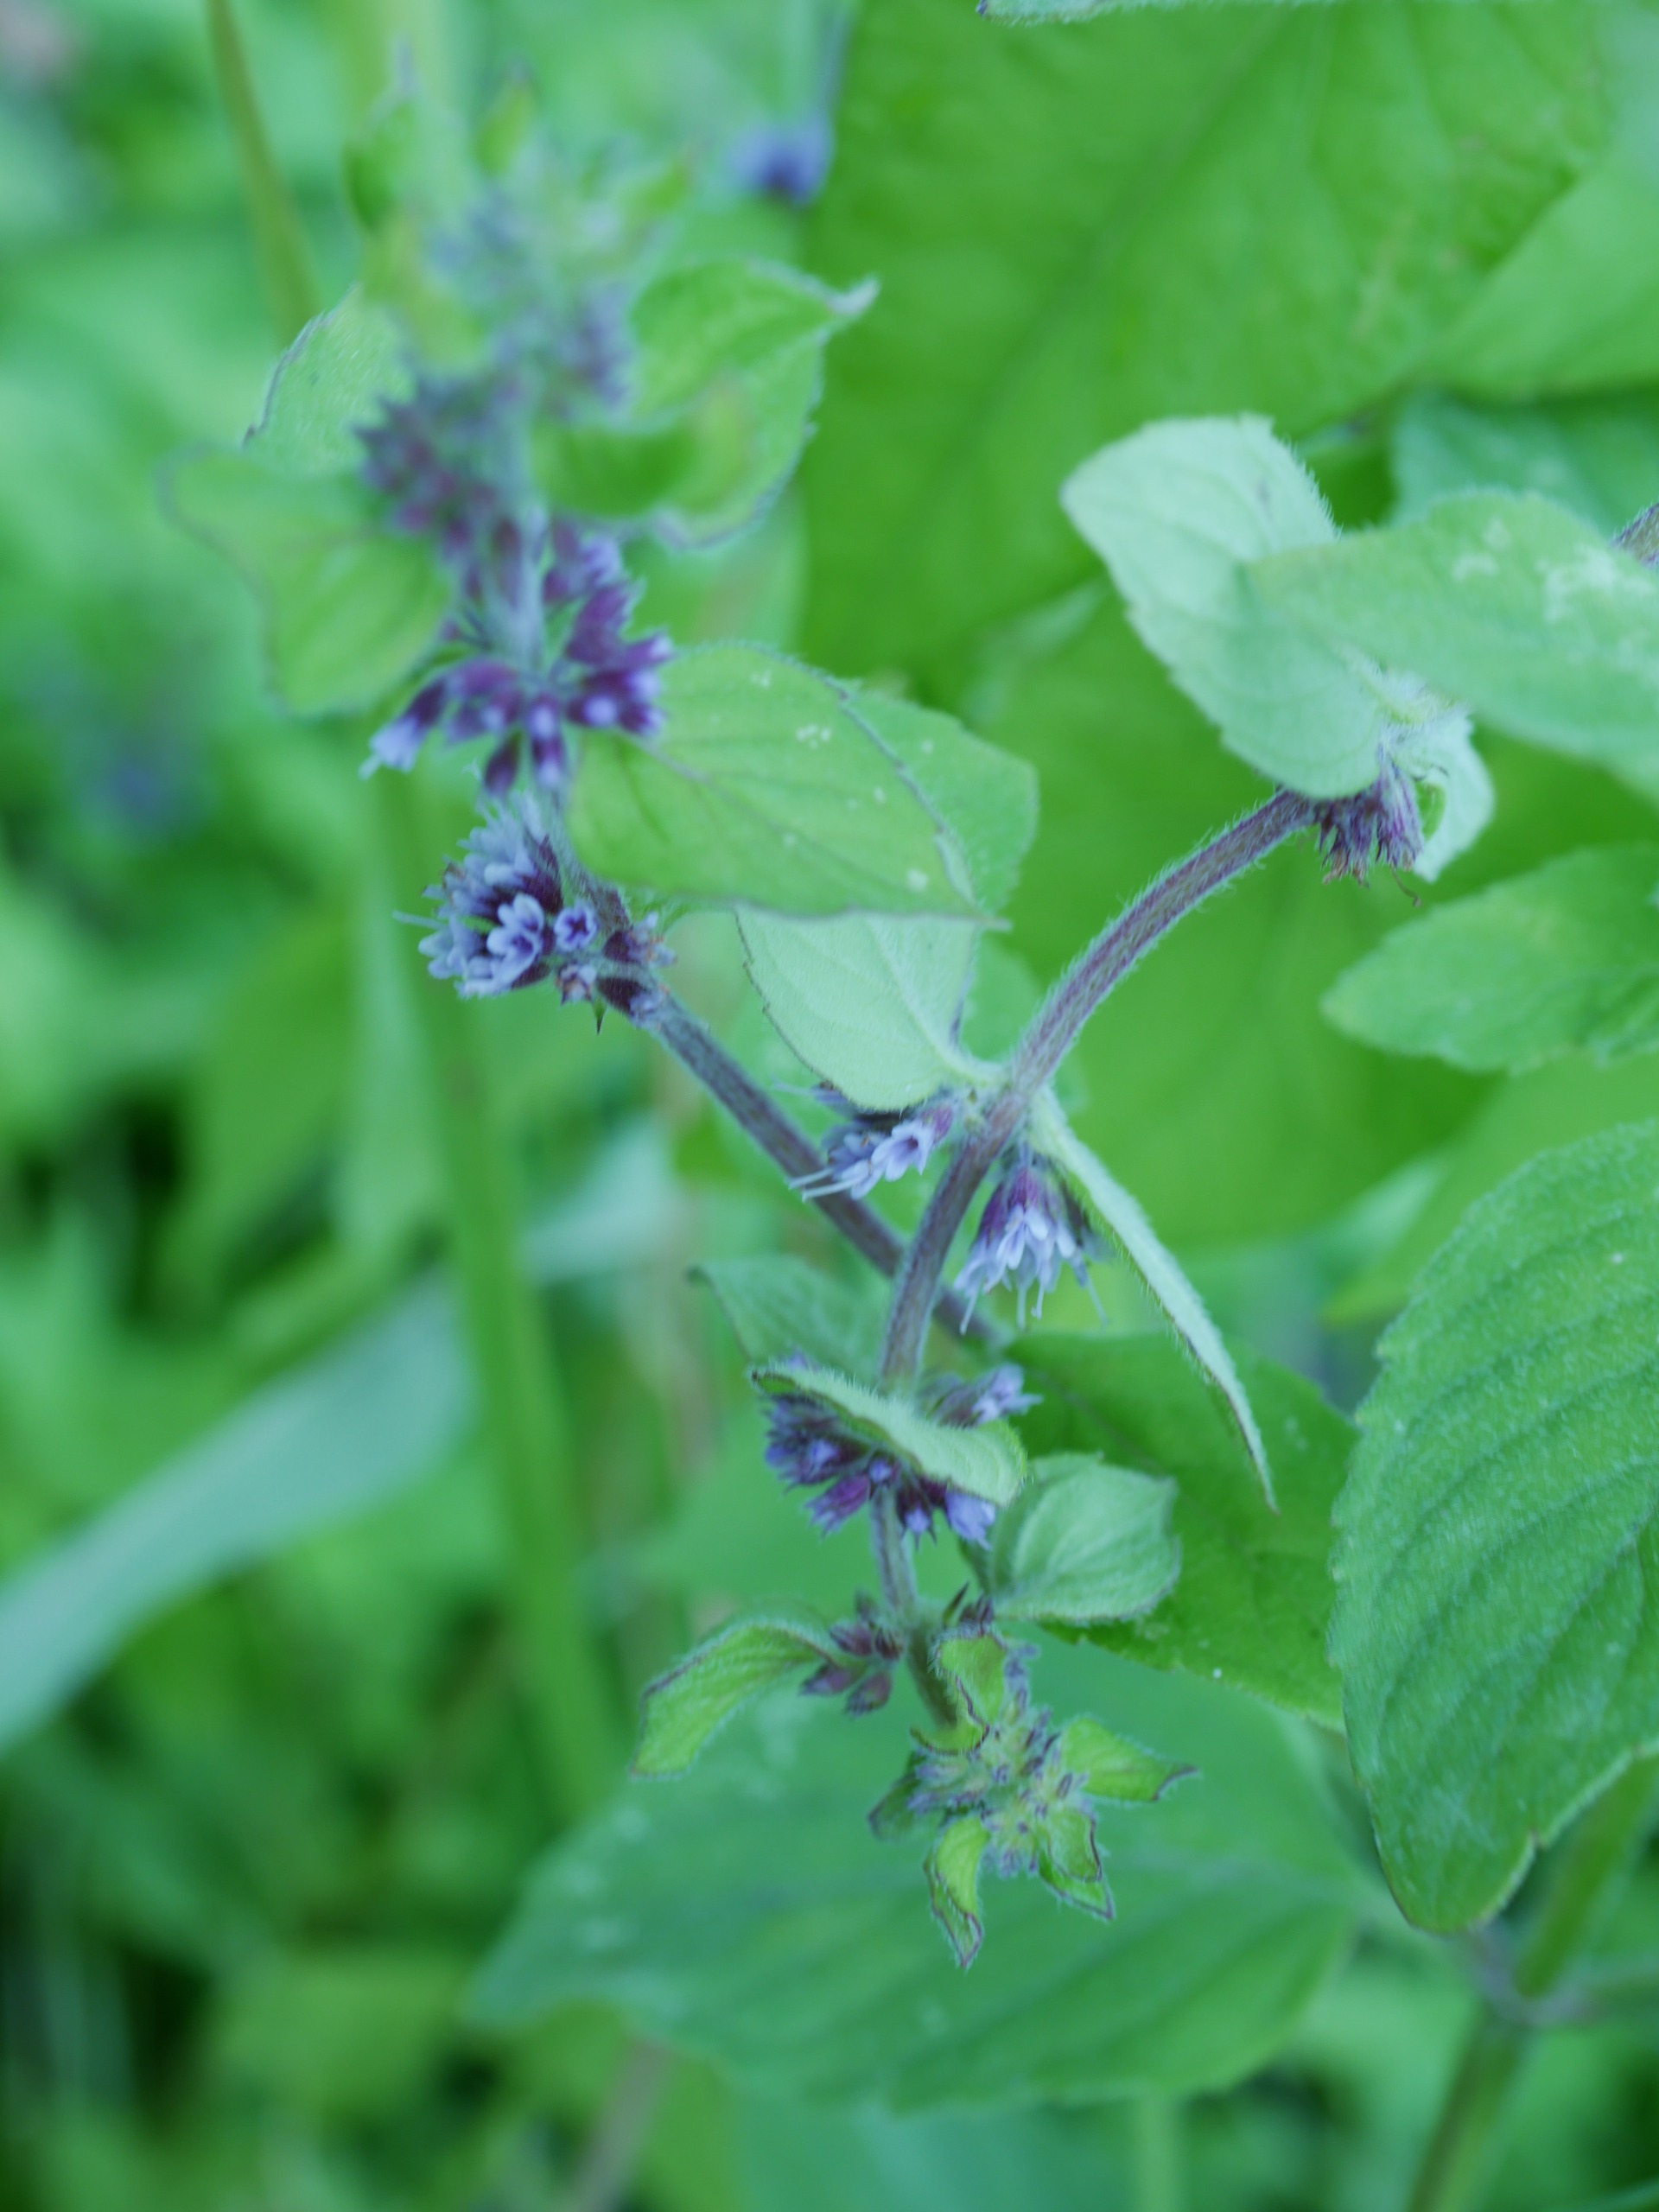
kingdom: Plantae
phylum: Tracheophyta
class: Magnoliopsida
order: Lamiales
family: Lamiaceae
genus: Mentha
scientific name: Mentha verticillata
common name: Krans-mynte
